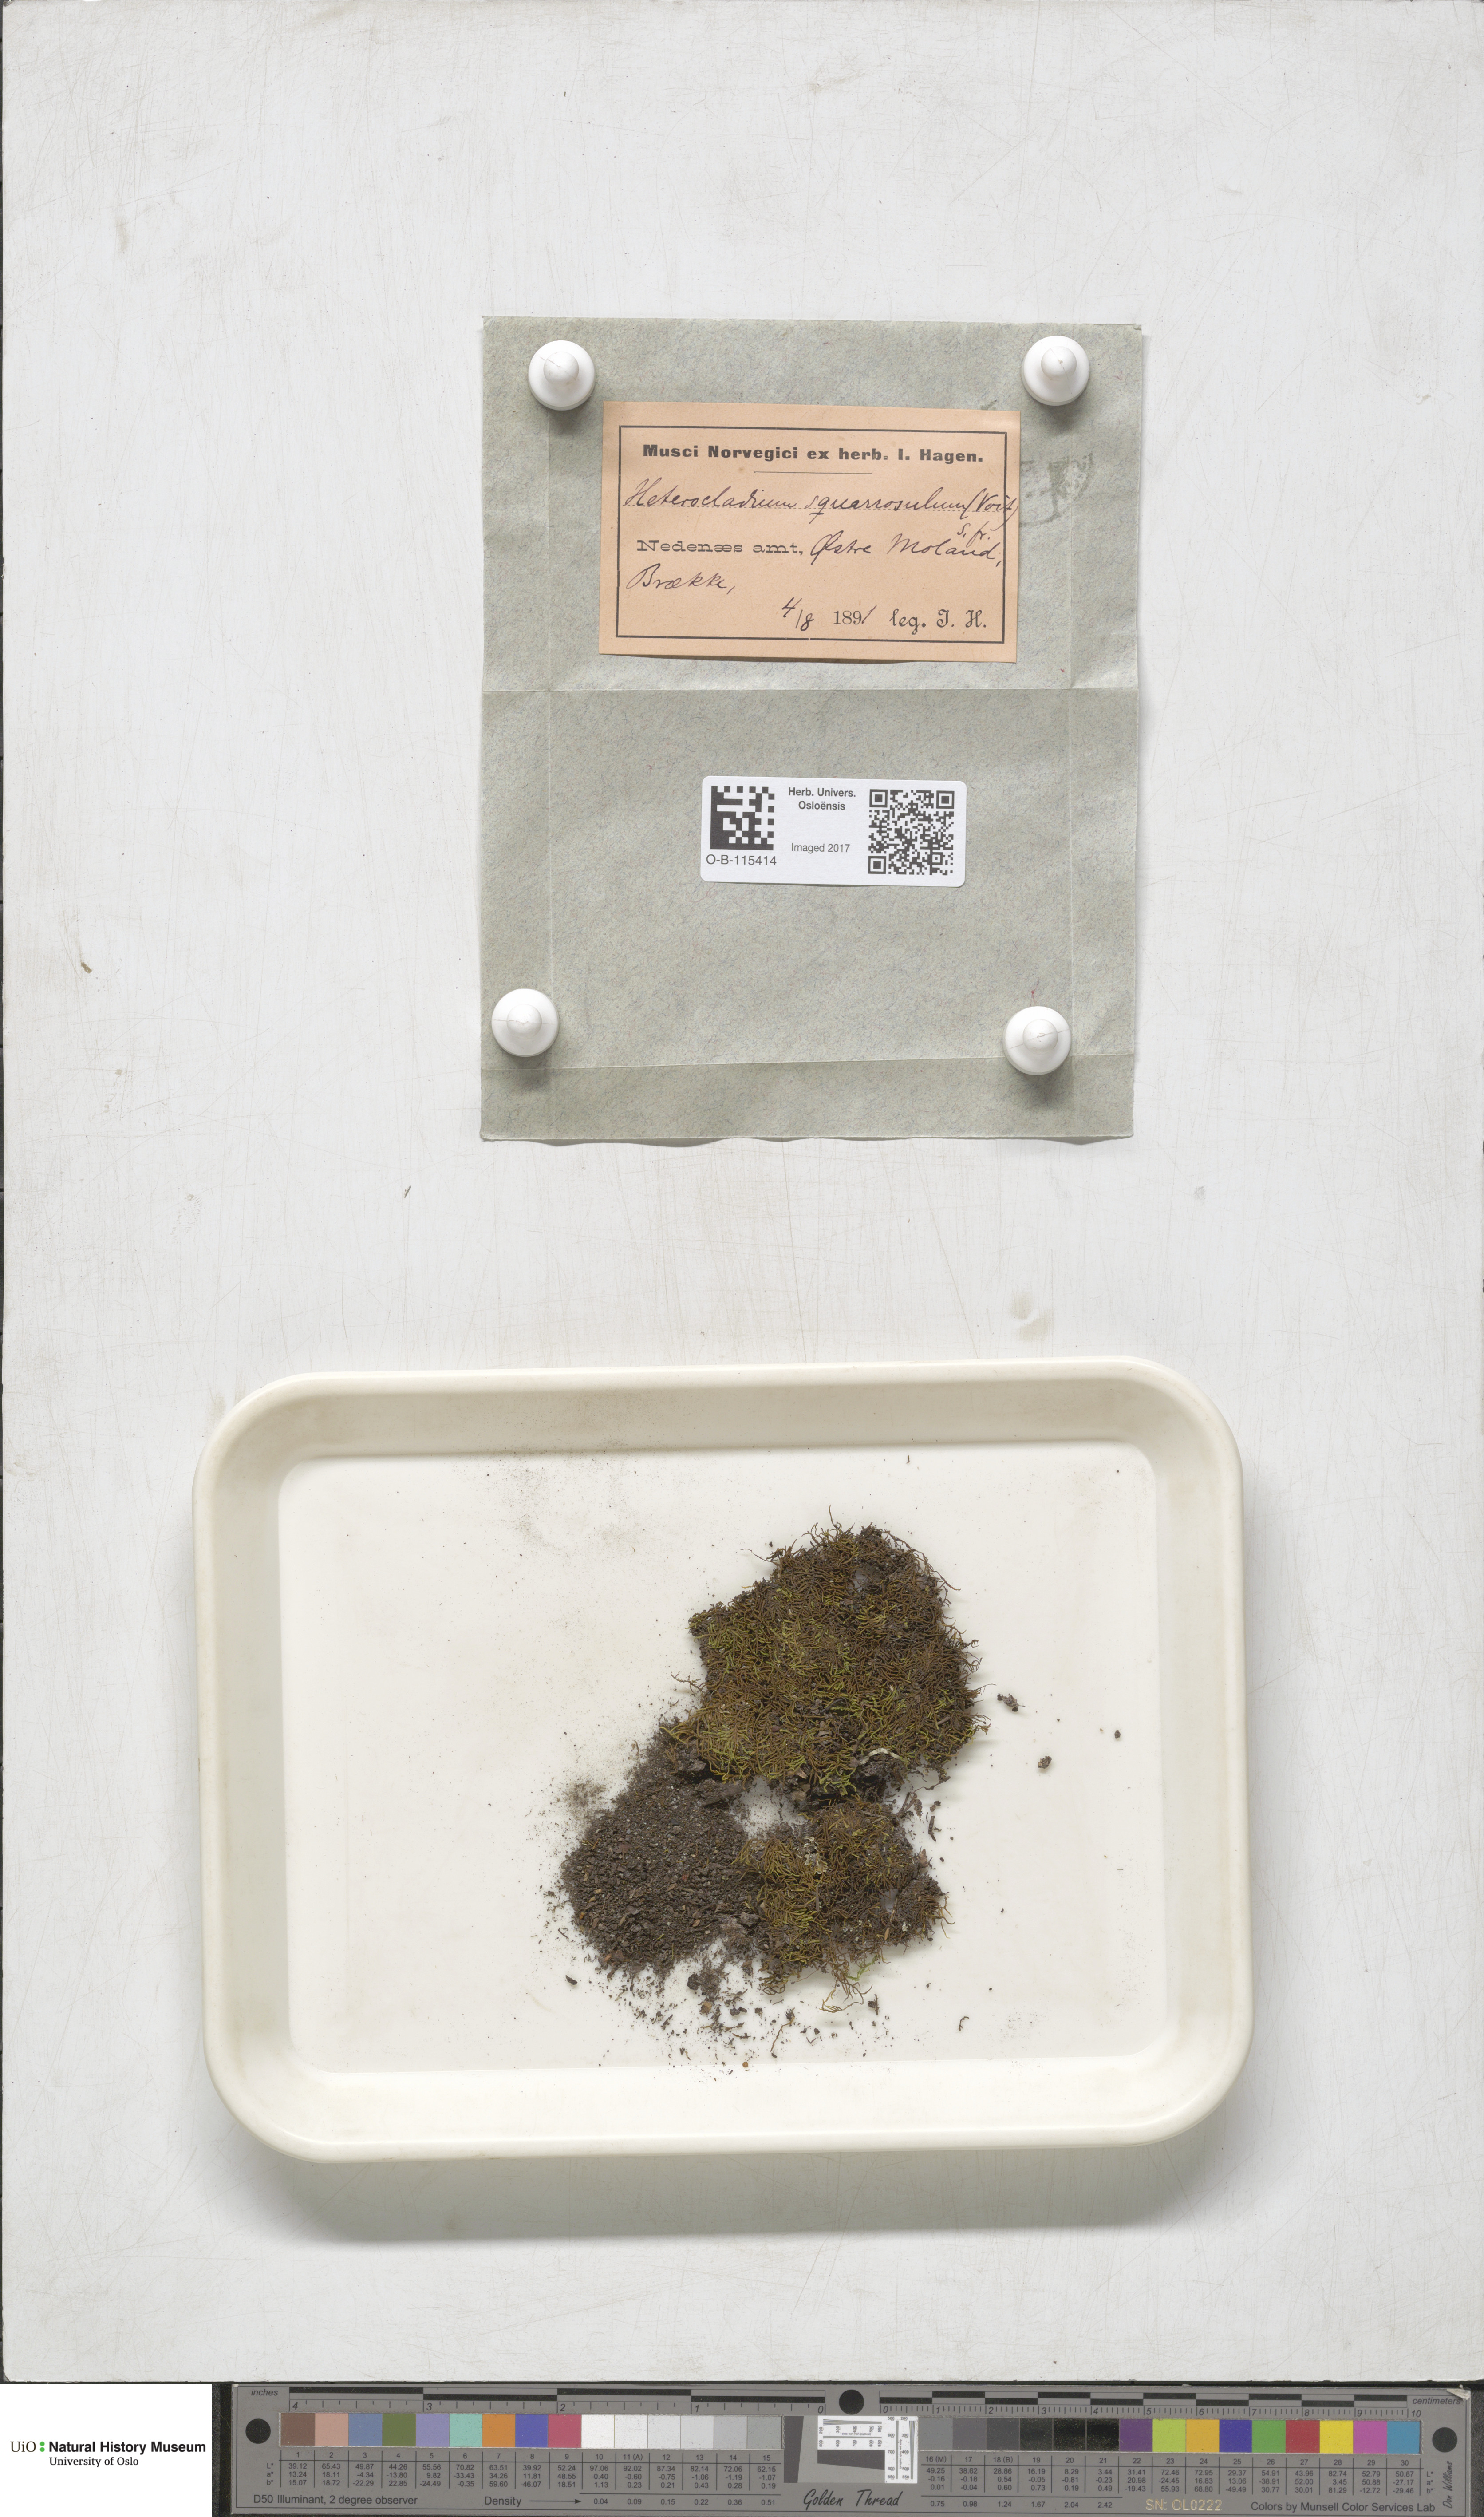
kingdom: Plantae
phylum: Bryophyta
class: Bryopsida
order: Hypnales
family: Heterocladiellaceae
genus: Heterocladiella
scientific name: Heterocladiella dimorpha
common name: Dimorphous tamarisk-moss
